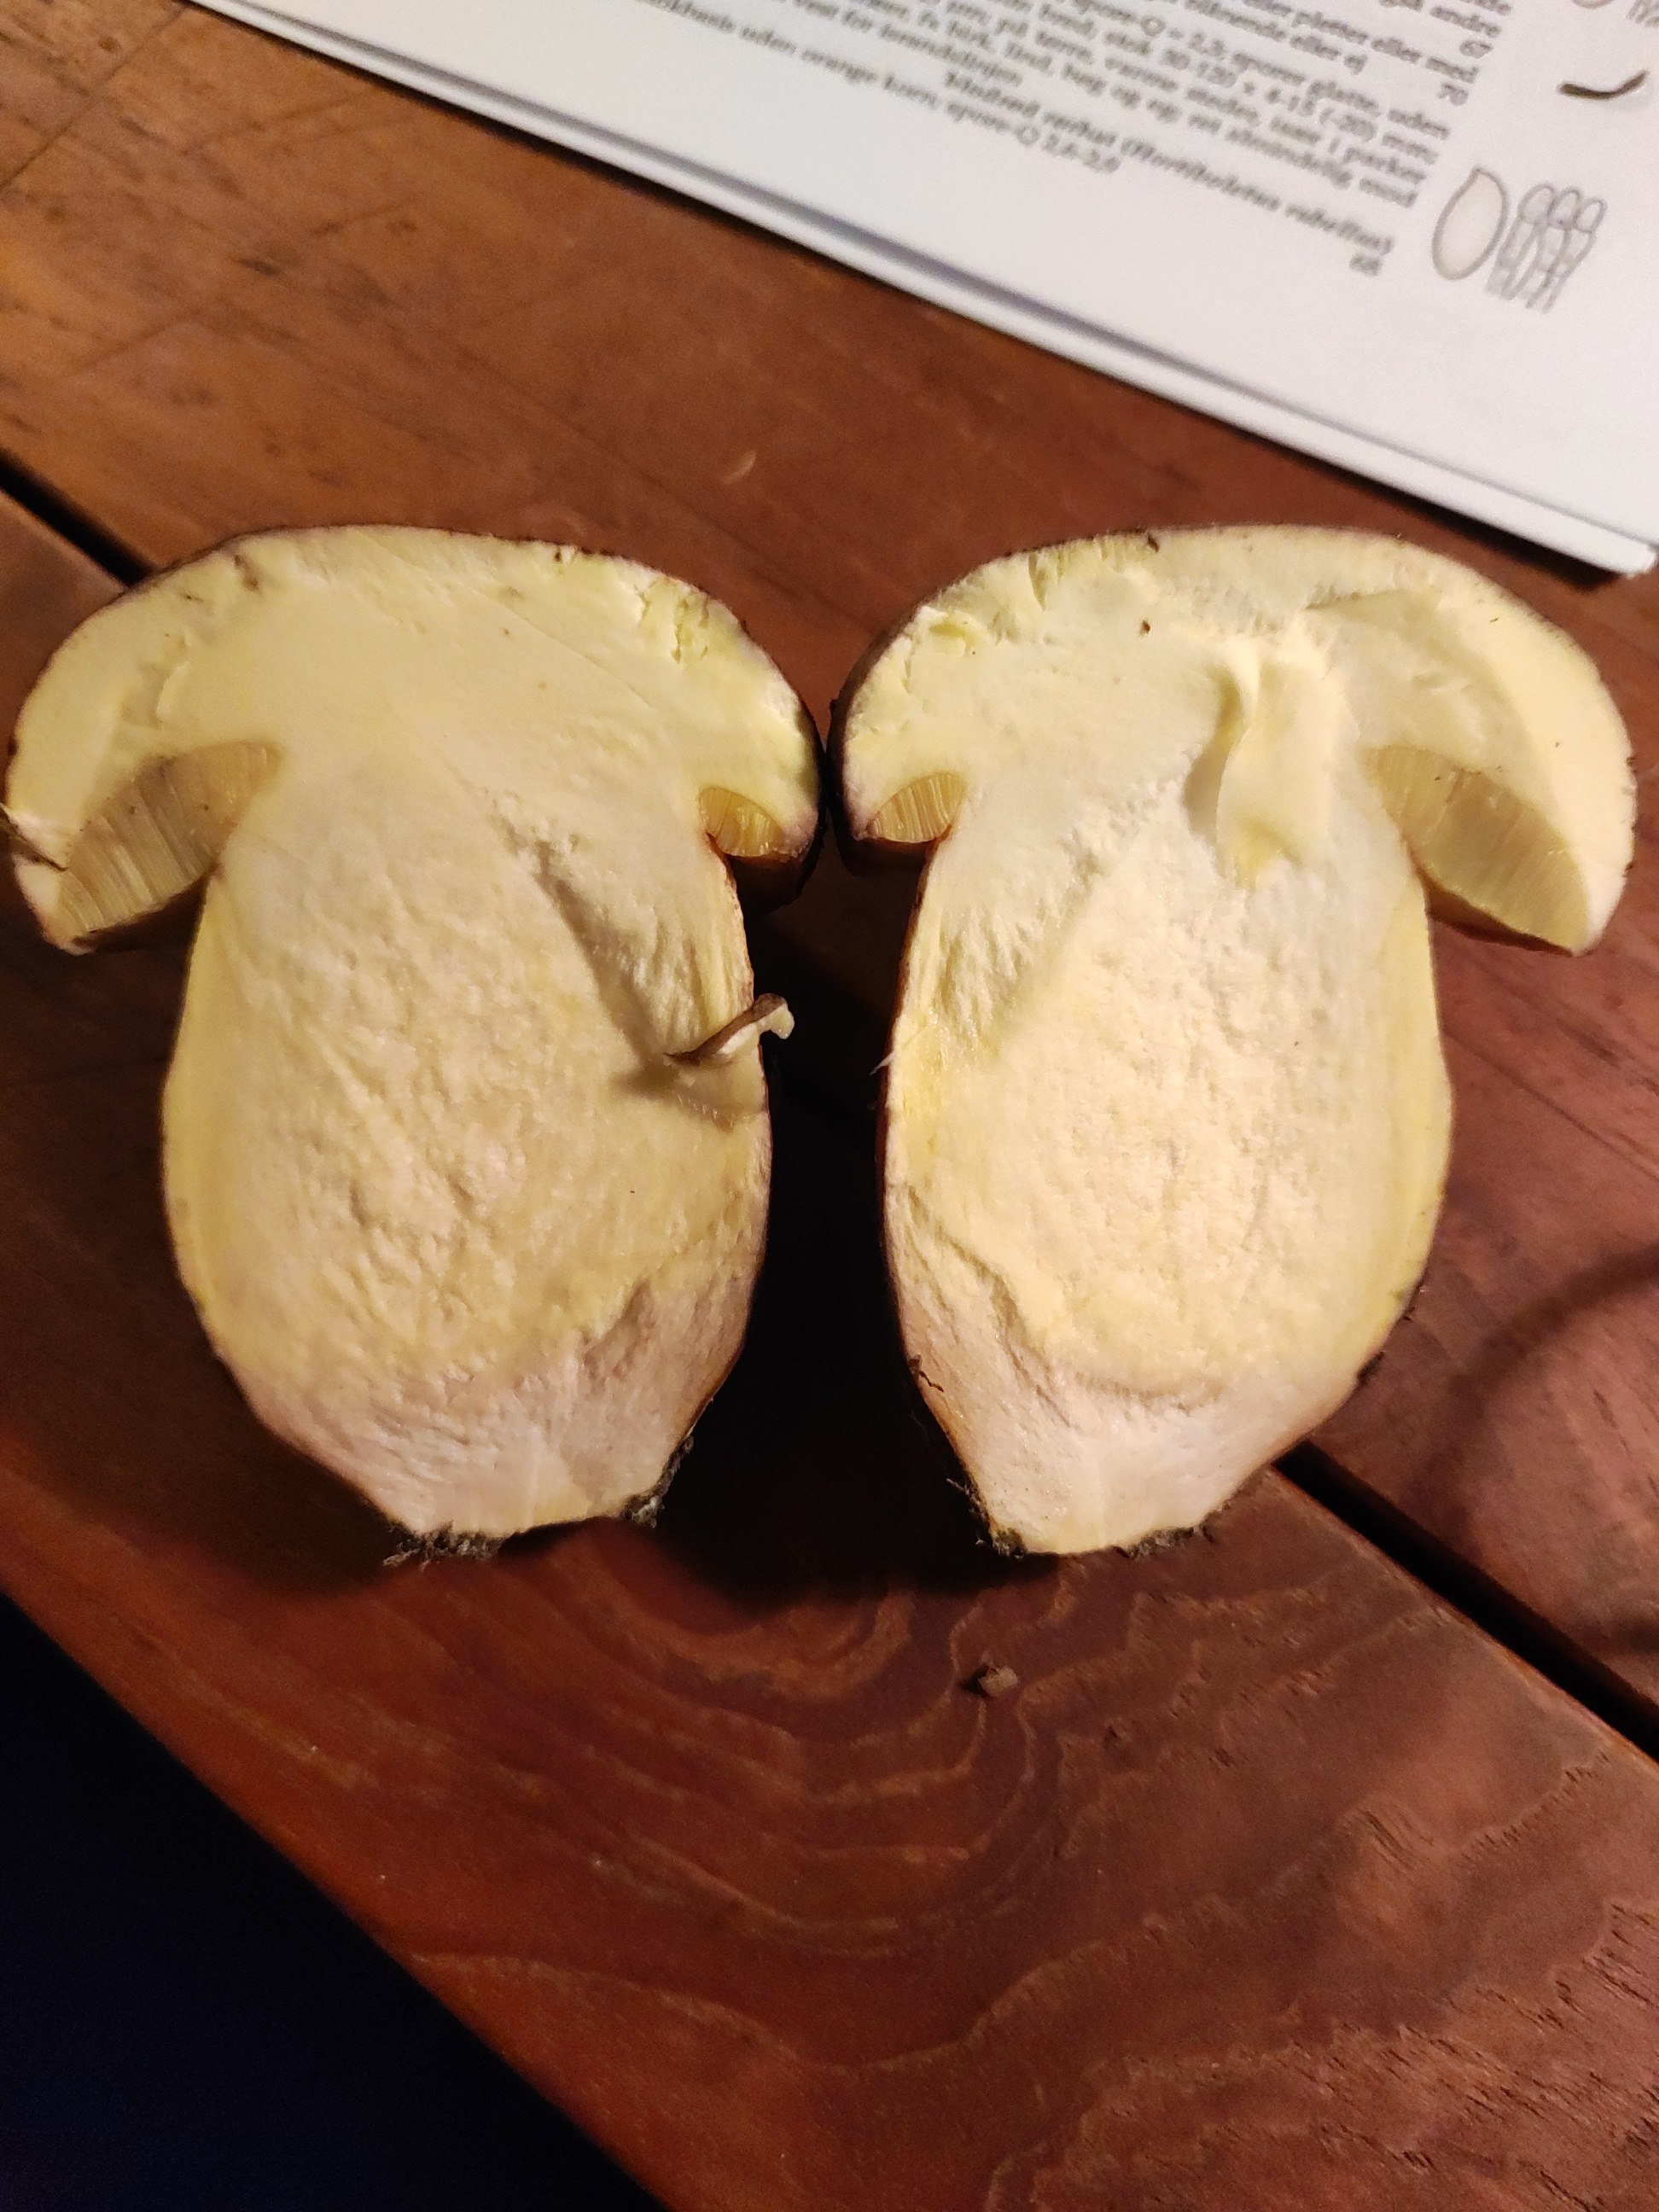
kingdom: Fungi
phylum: Basidiomycota
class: Agaricomycetes
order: Boletales
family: Boletaceae
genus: Butyriboletus
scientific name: Butyriboletus appendiculatus
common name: tenstokket rørhat
